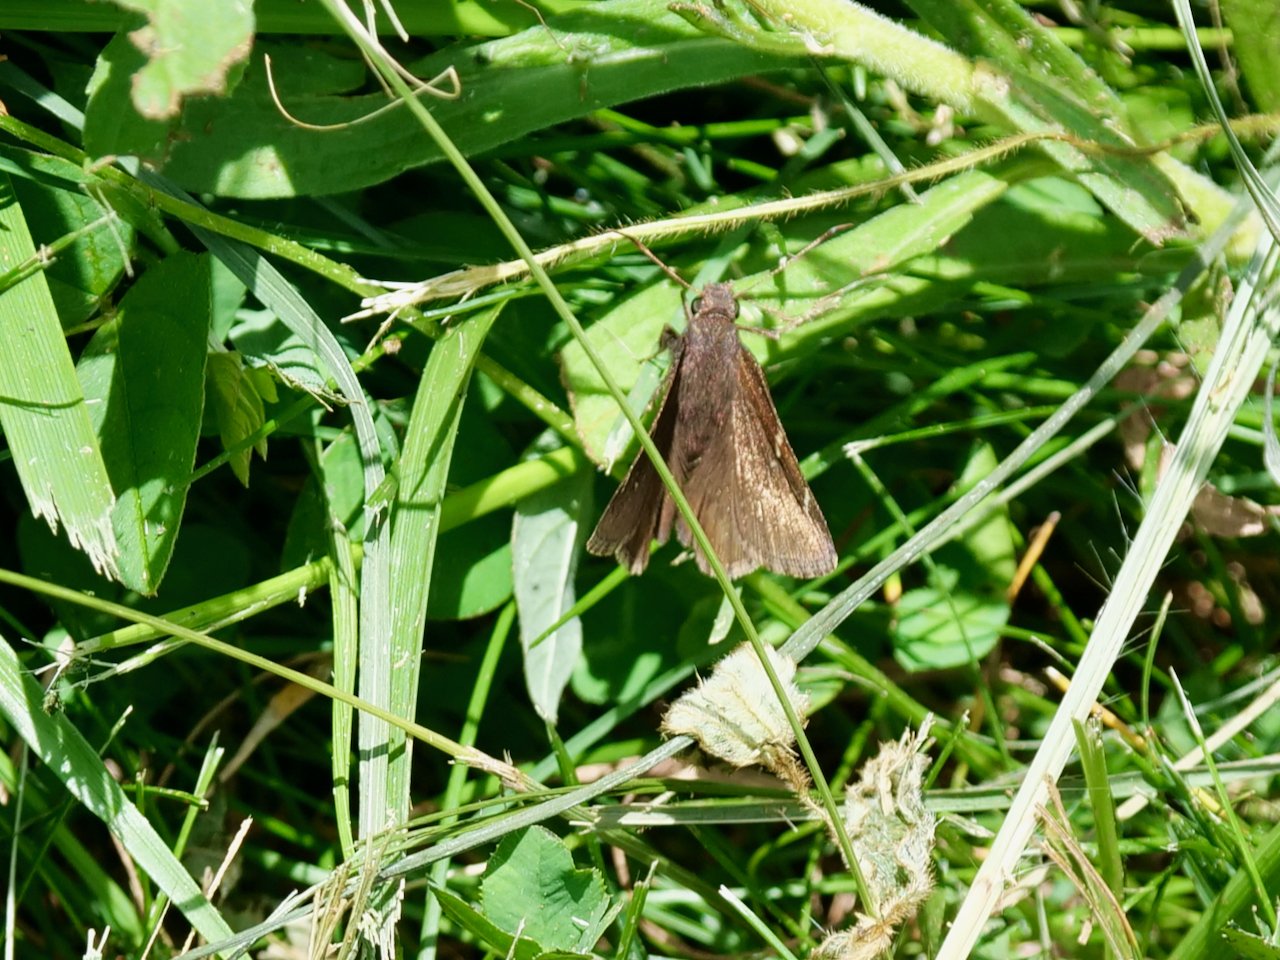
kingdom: Animalia
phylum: Arthropoda
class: Insecta
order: Lepidoptera
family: Hesperiidae
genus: Autochton
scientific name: Autochton
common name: Northern Cloudywing
